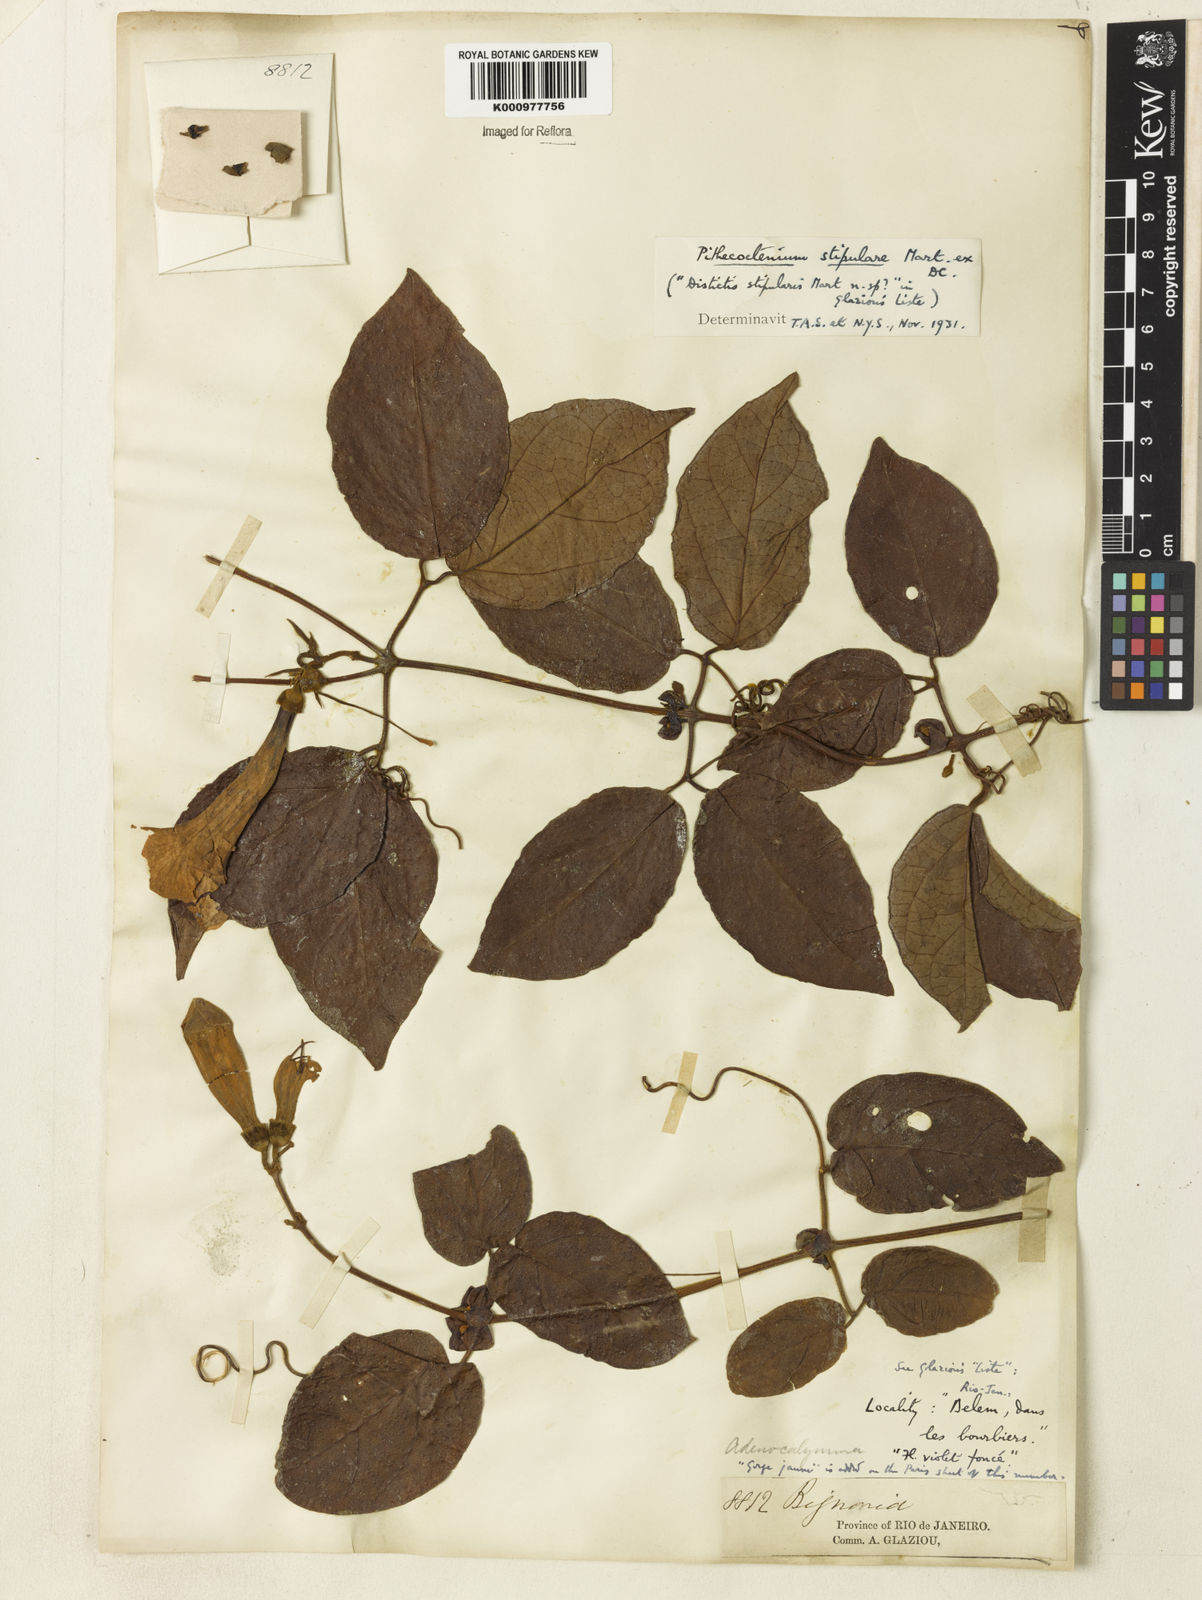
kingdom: Plantae
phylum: Tracheophyta
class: Magnoliopsida
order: Lamiales
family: Bignoniaceae
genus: Pithecoctenium
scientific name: Pithecoctenium
